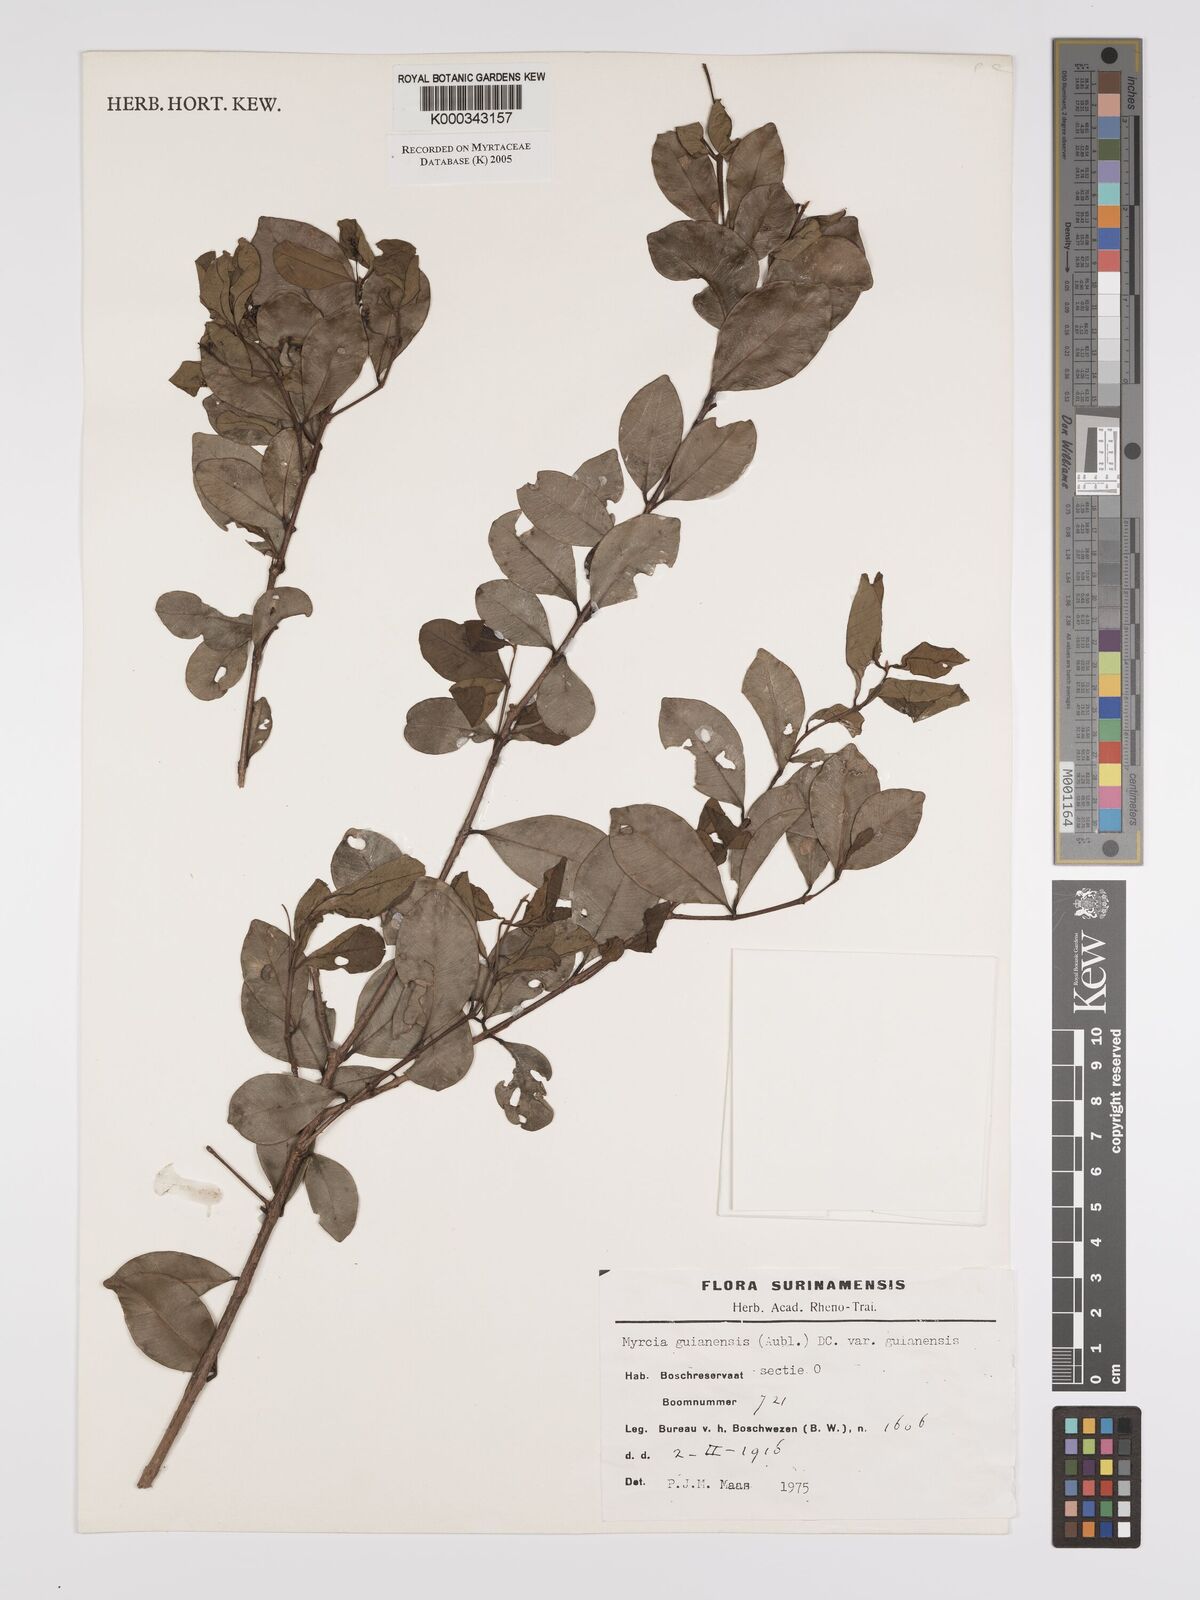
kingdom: Plantae
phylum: Tracheophyta
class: Magnoliopsida
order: Myrtales
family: Myrtaceae
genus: Myrcia
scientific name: Myrcia guianensis
